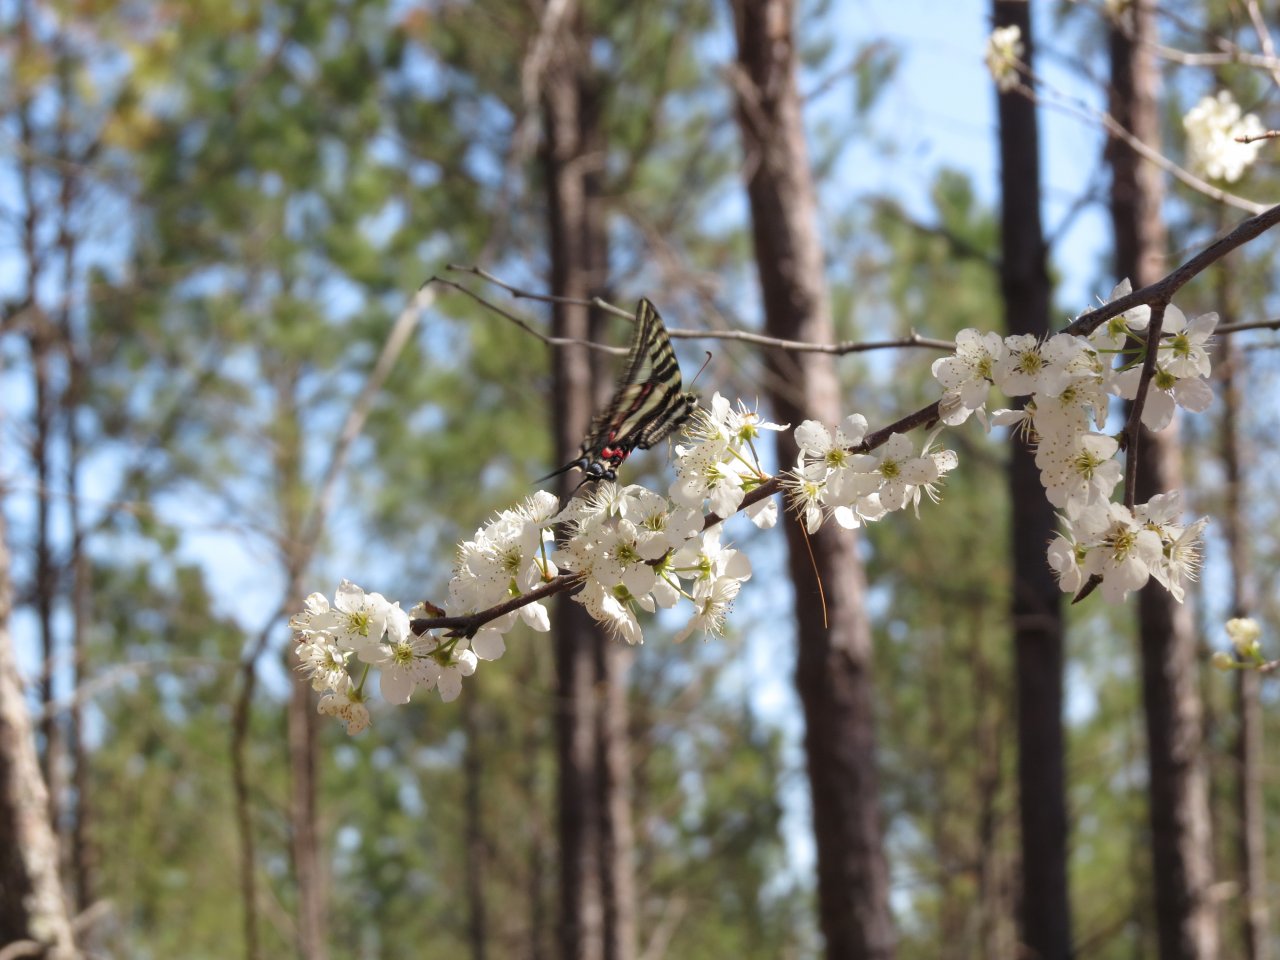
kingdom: Animalia
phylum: Arthropoda
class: Insecta
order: Lepidoptera
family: Papilionidae
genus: Protographium
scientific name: Protographium marcellus
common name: Zebra Swallowtail
